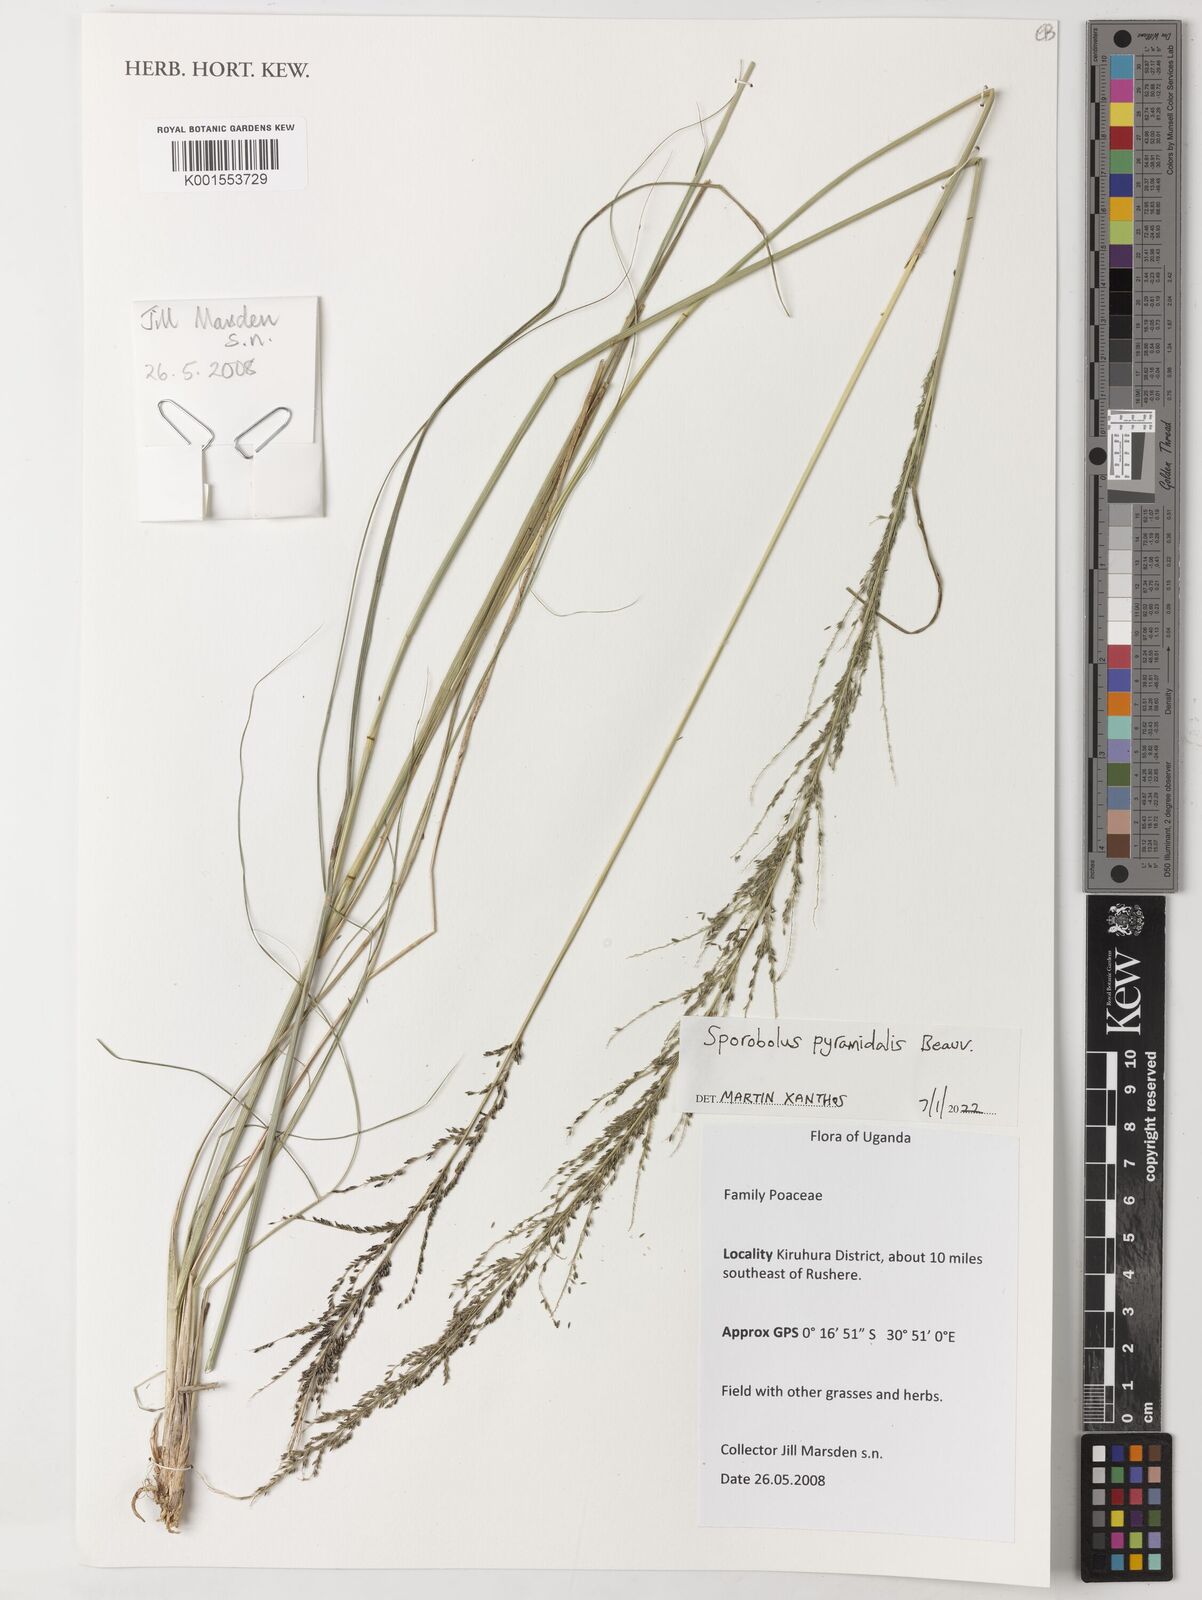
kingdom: Plantae
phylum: Tracheophyta
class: Liliopsida
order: Poales
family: Poaceae
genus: Sporobolus
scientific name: Sporobolus pyramidalis
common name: West indian dropseed
